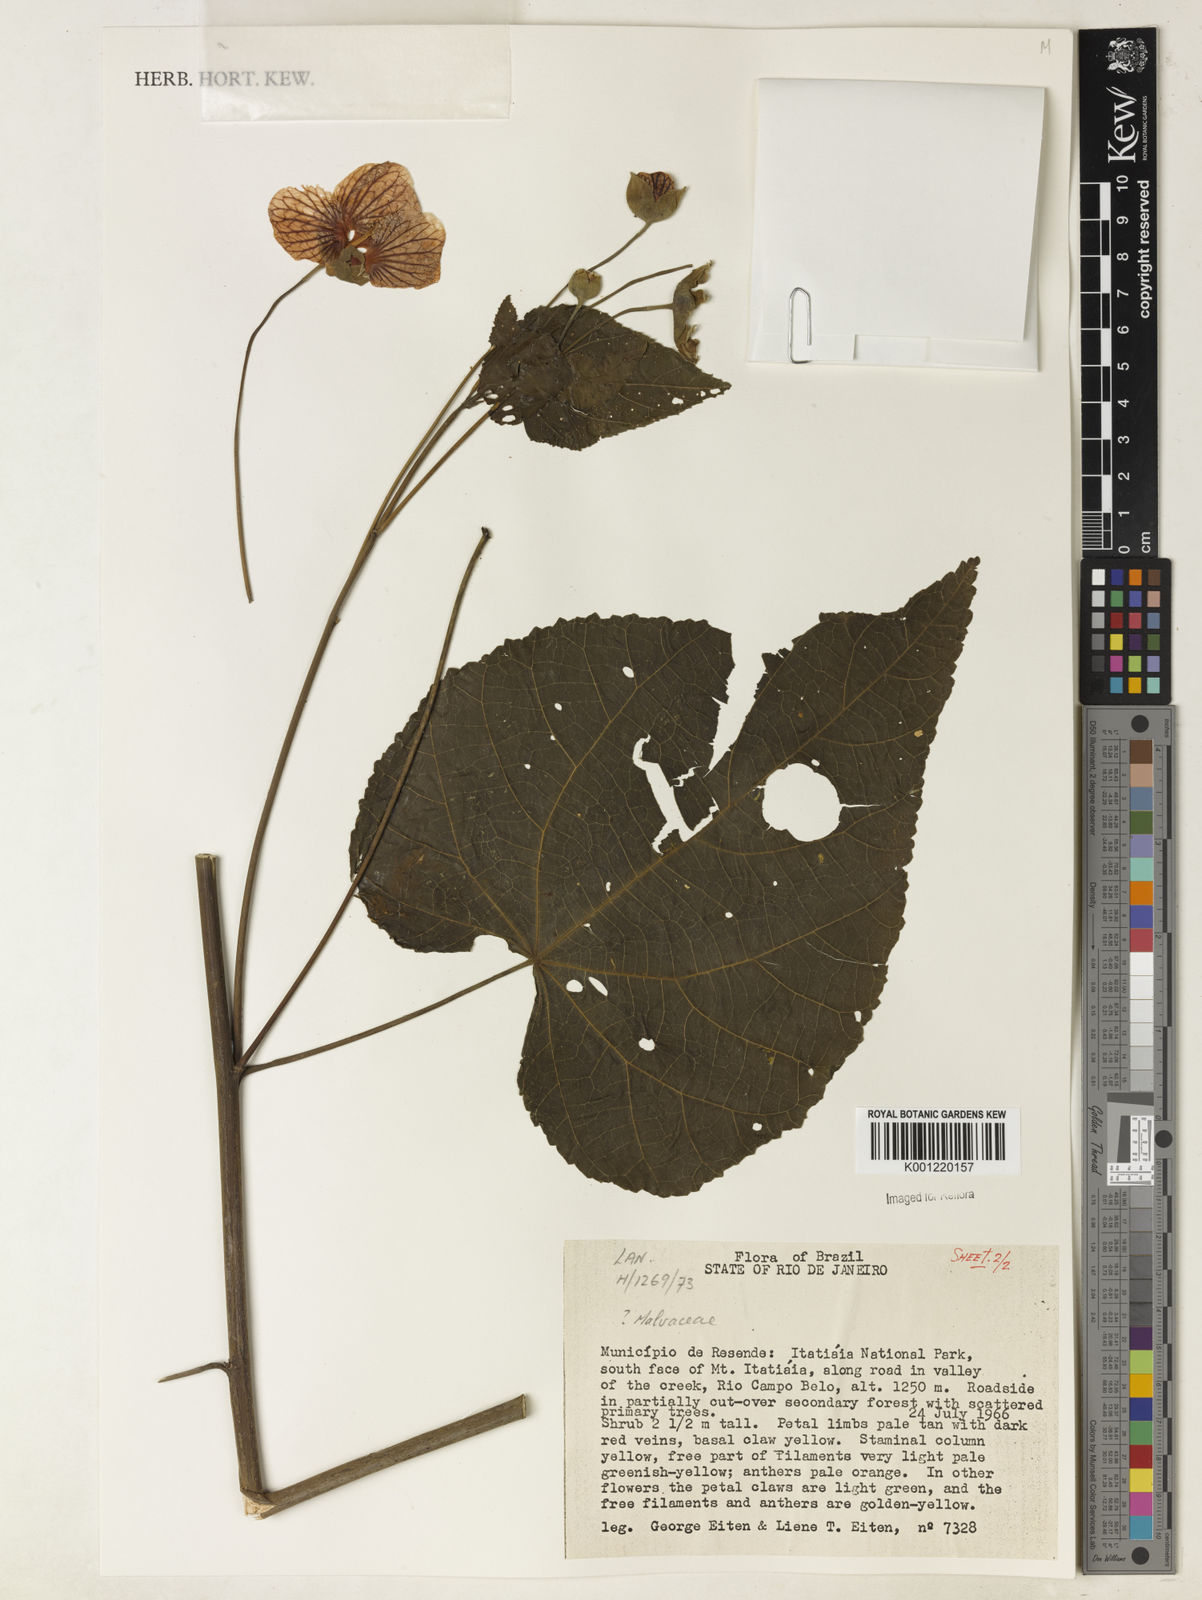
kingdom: Plantae
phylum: Tracheophyta
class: Magnoliopsida
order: Malvales
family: Malvaceae
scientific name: Malvaceae
